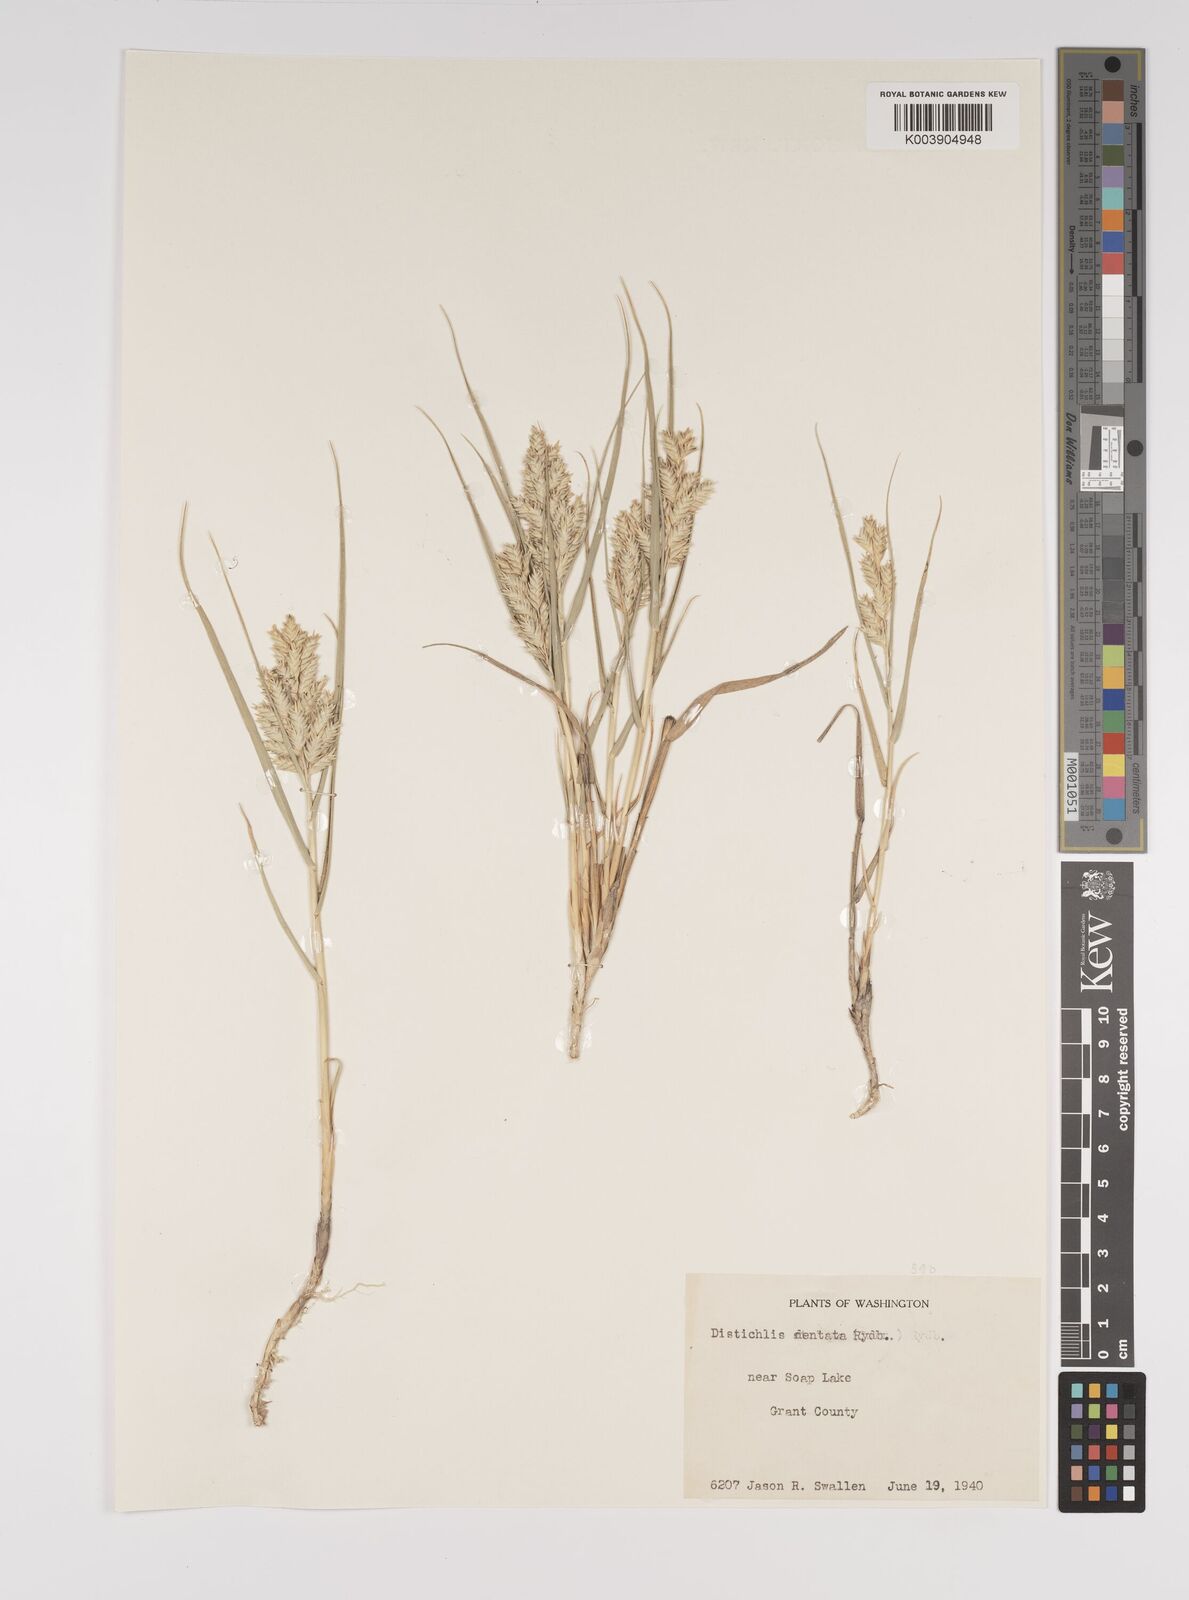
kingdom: Plantae
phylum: Tracheophyta
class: Liliopsida
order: Poales
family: Poaceae
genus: Distichlis
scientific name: Distichlis spicata
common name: Saltgrass
